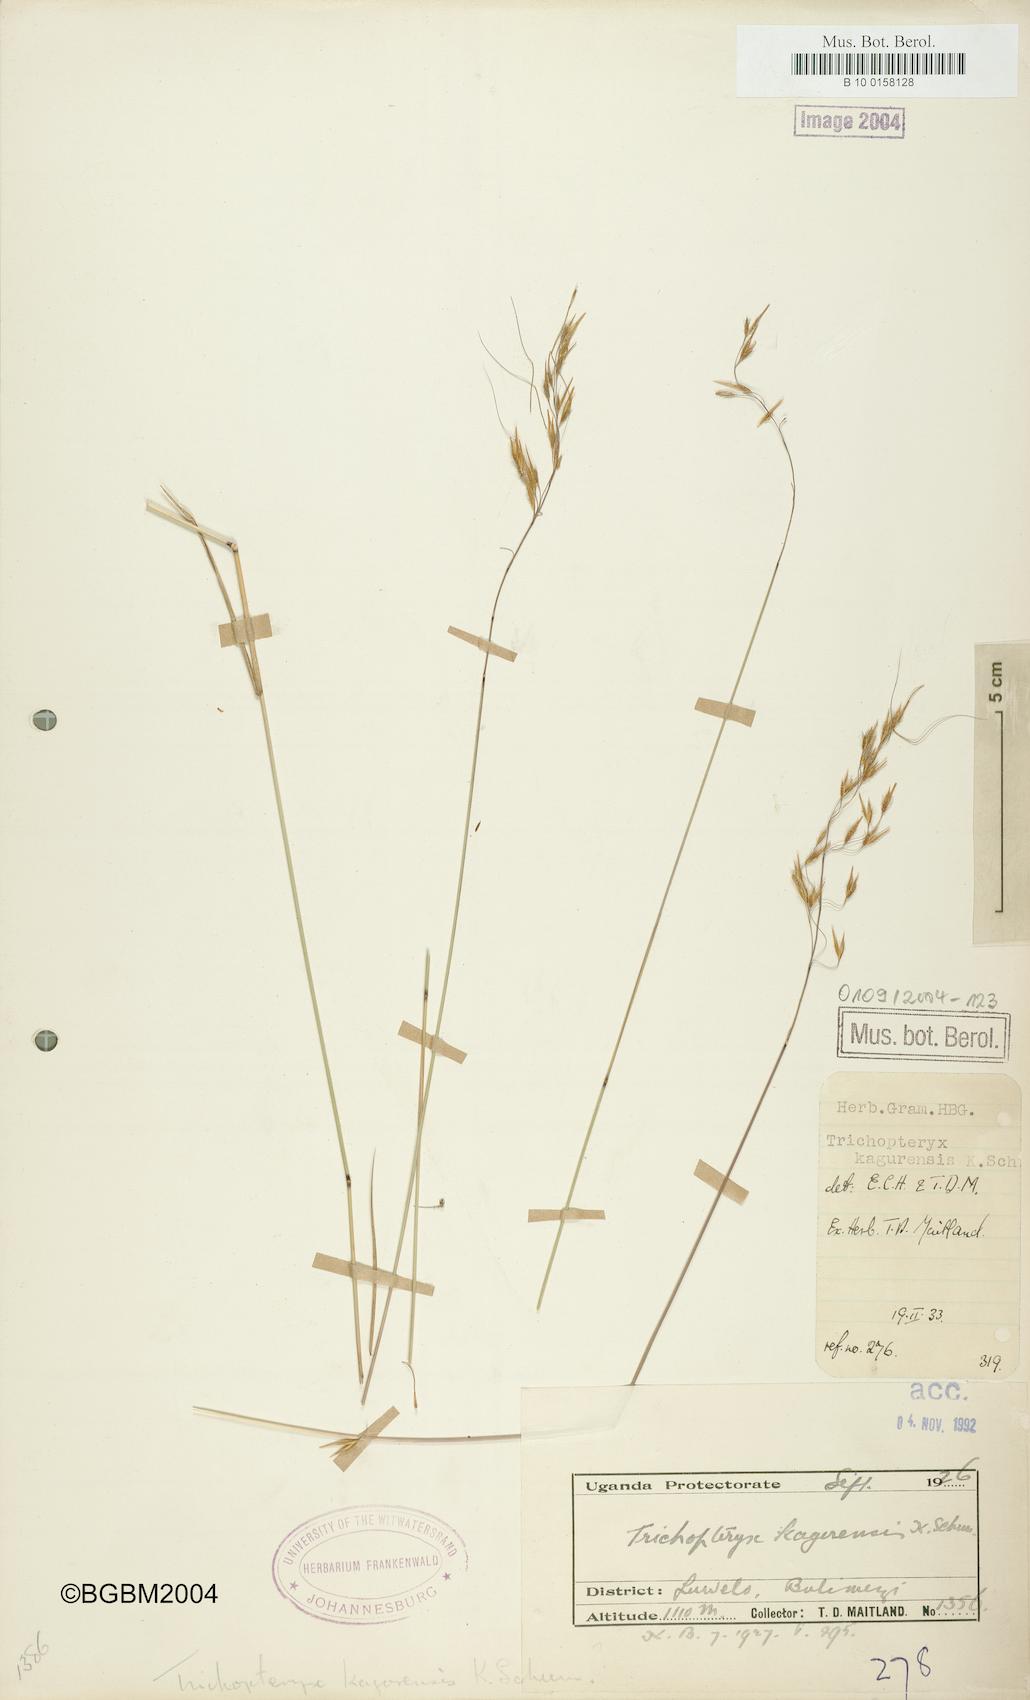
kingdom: Plantae
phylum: Tracheophyta
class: Liliopsida
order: Poales
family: Poaceae
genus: Loudetia
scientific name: Loudetia kagerensis
